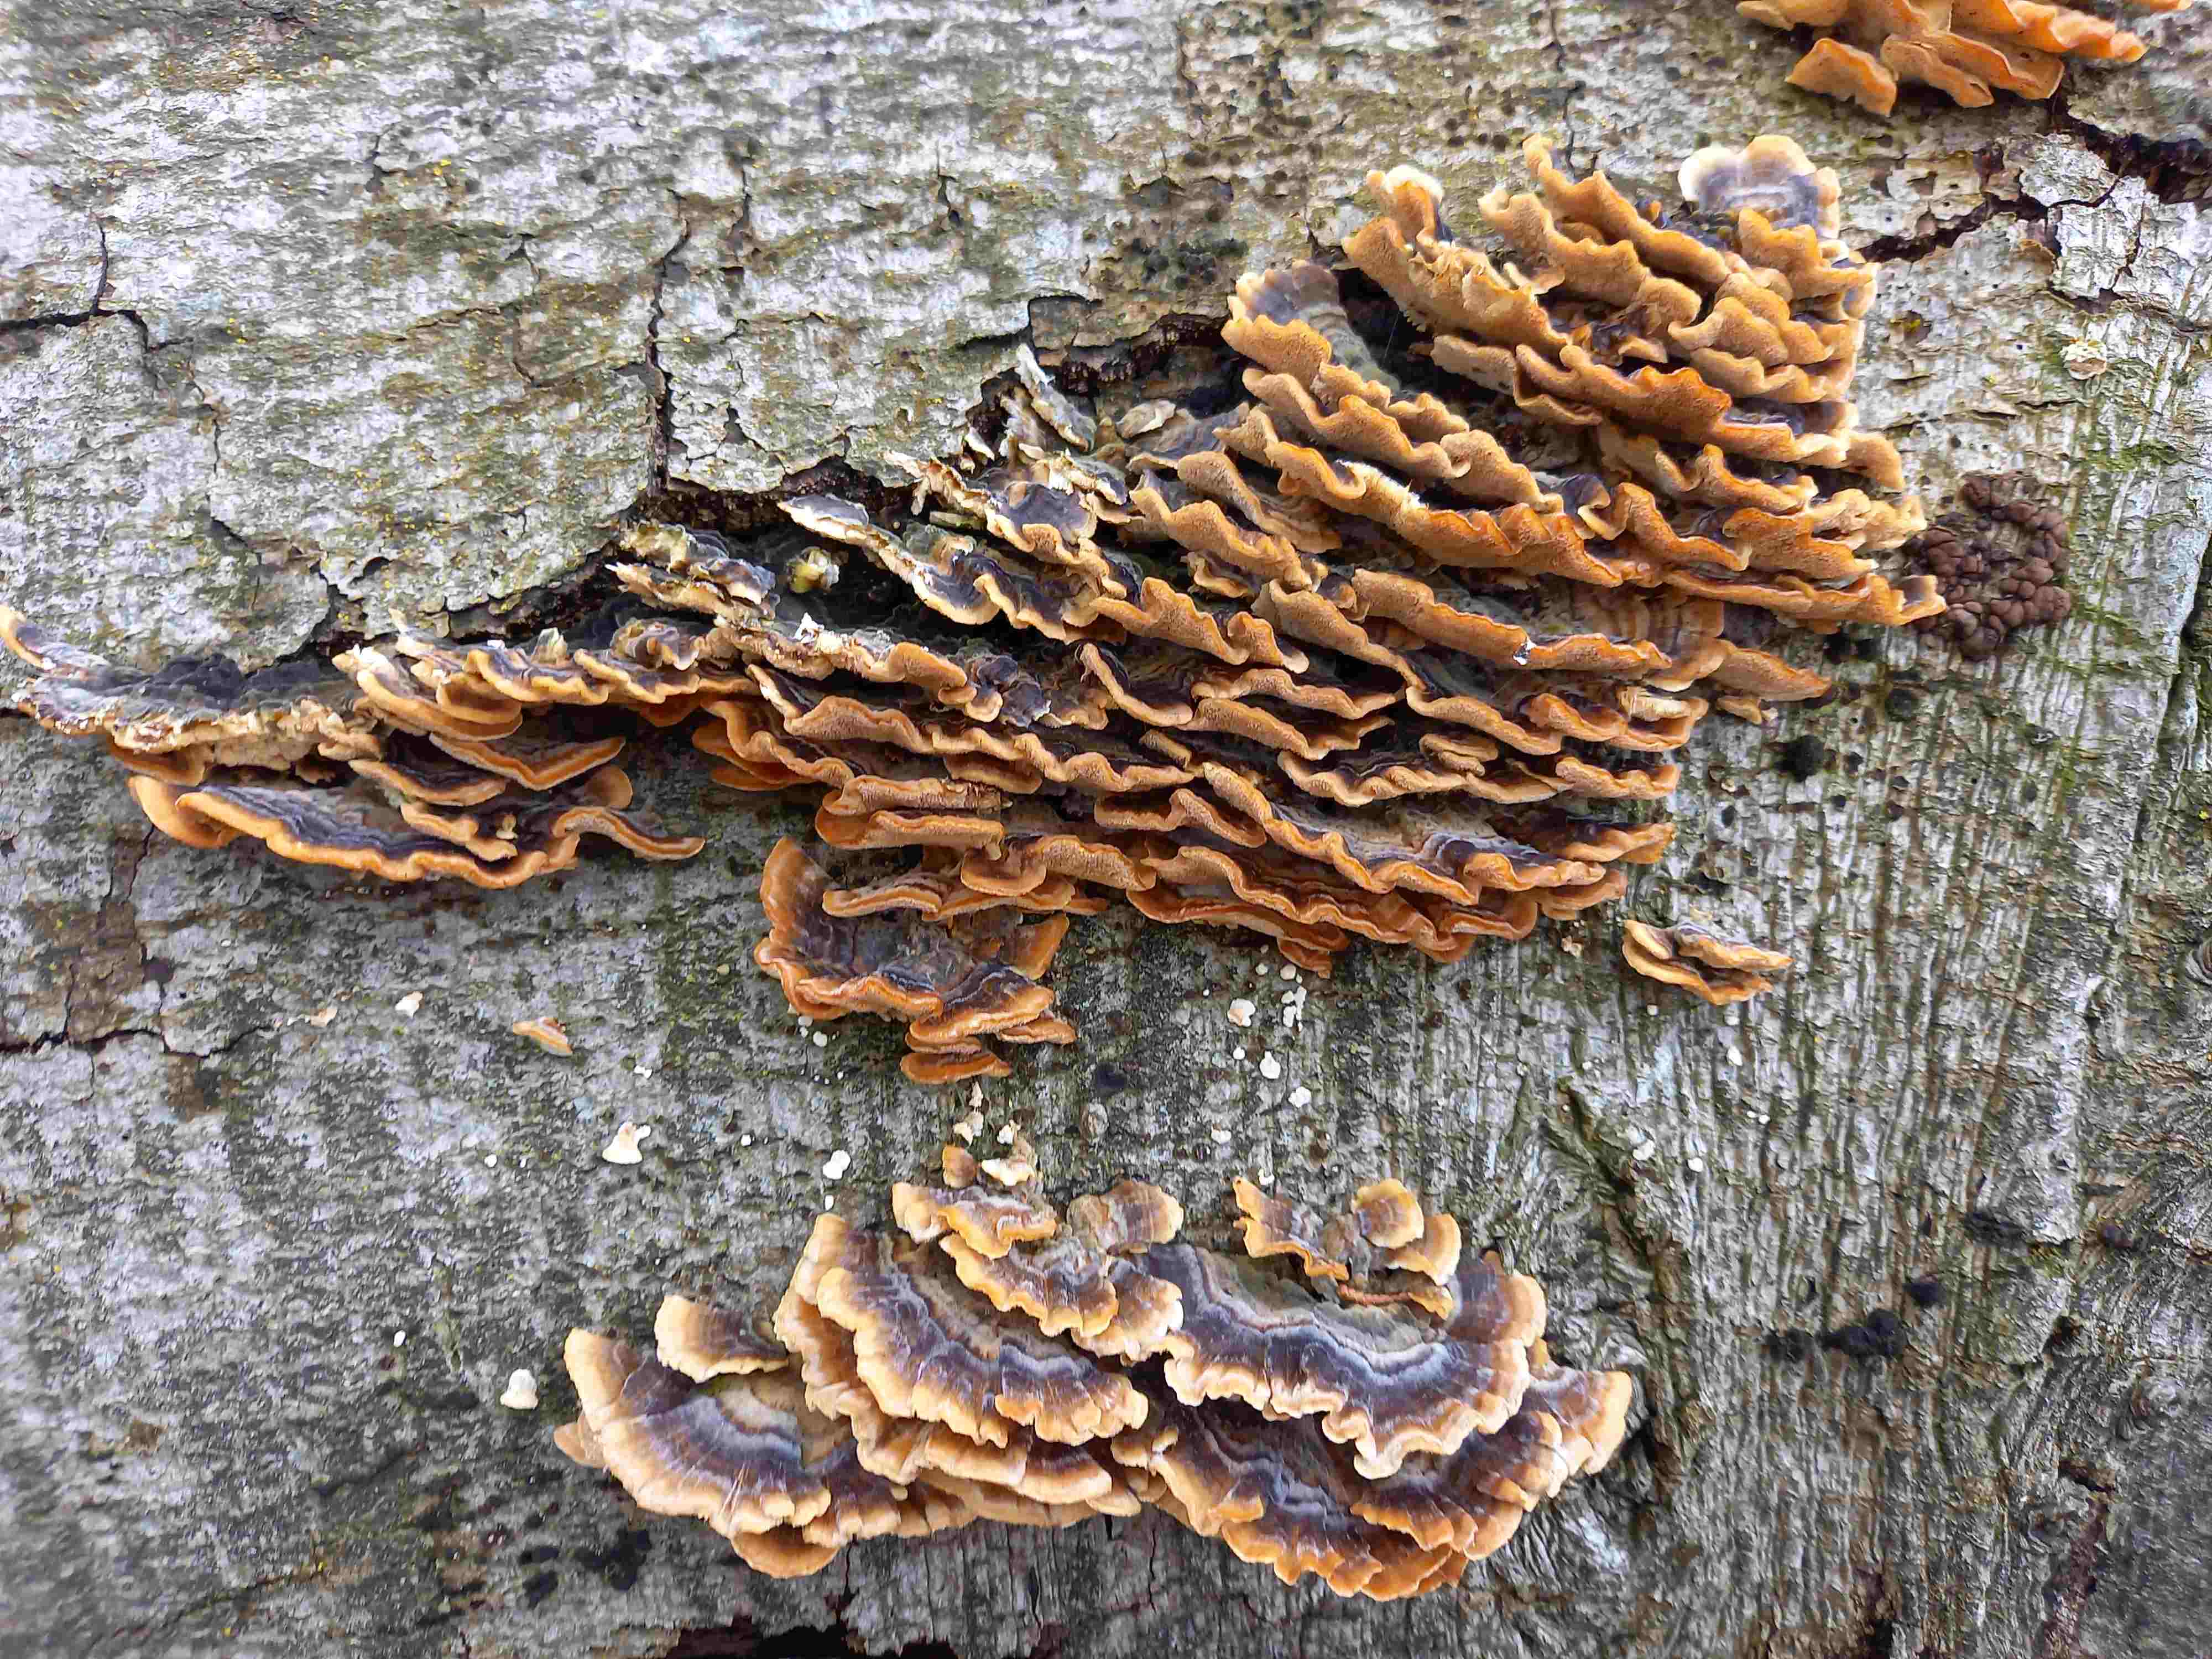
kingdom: Fungi
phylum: Basidiomycota
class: Agaricomycetes
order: Russulales
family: Stereaceae
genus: Stereum
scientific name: Stereum hirsutum
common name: håret lædersvamp
